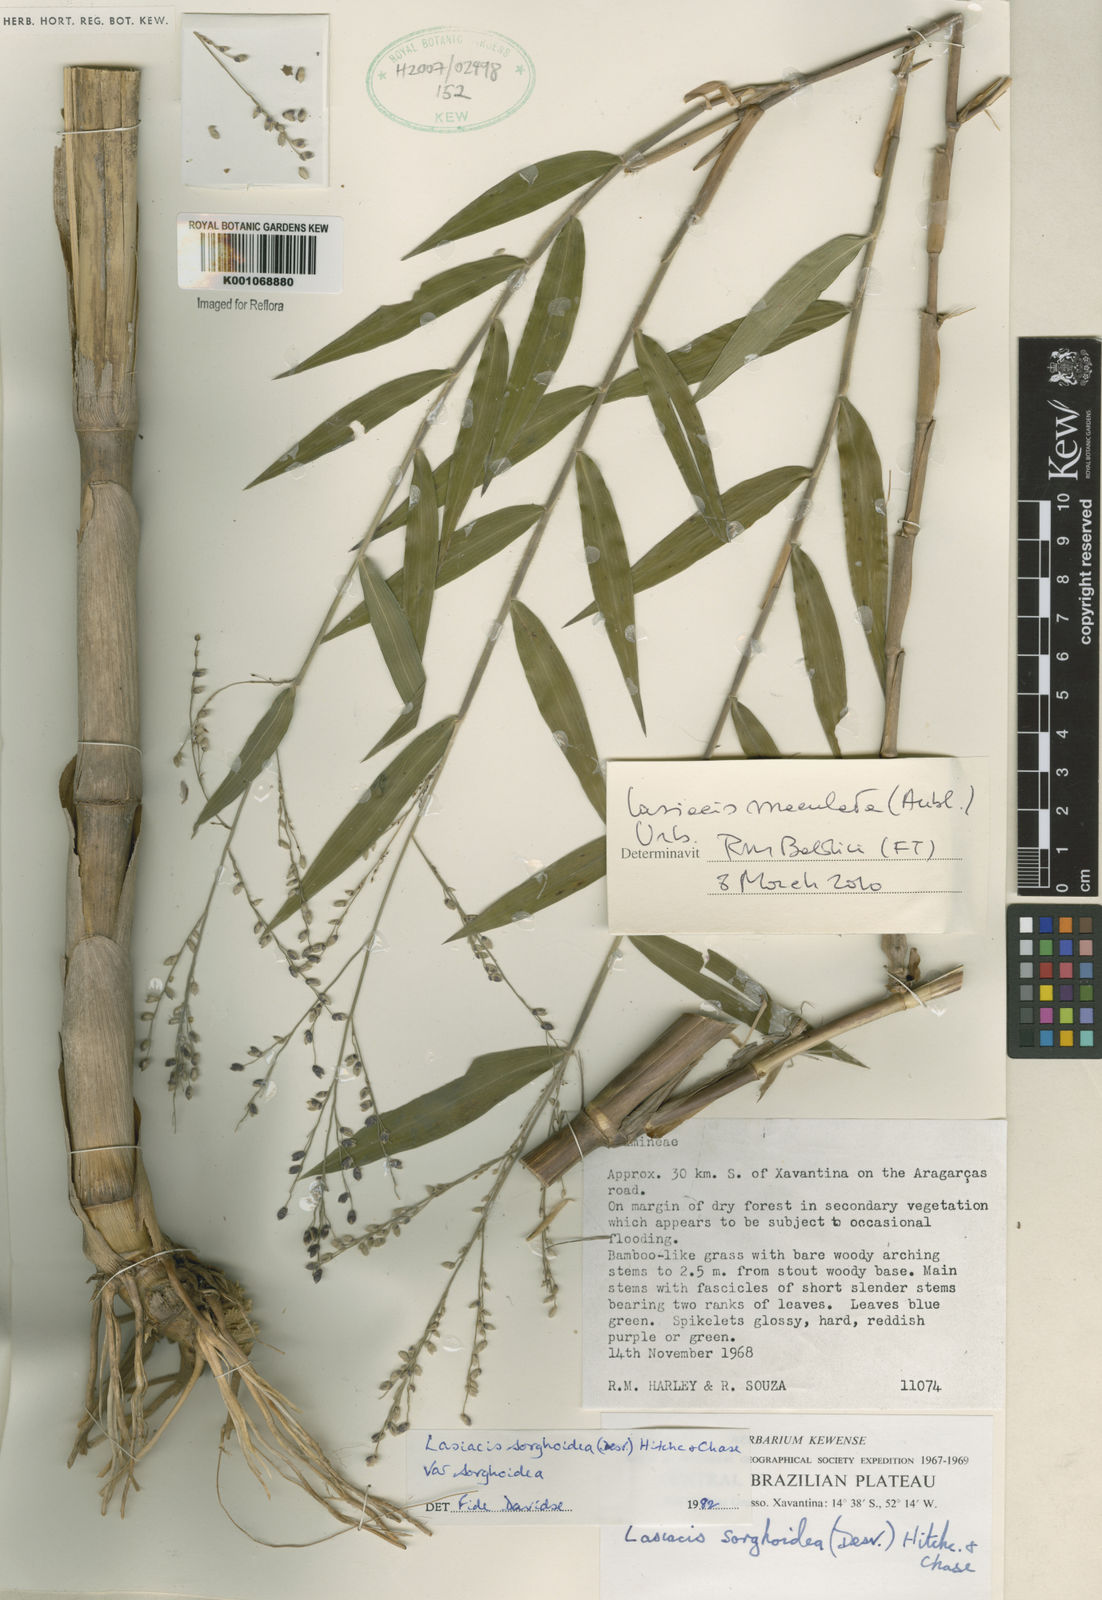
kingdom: Plantae
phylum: Tracheophyta
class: Liliopsida
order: Poales
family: Poaceae
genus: Lasiacis
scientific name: Lasiacis maculata
